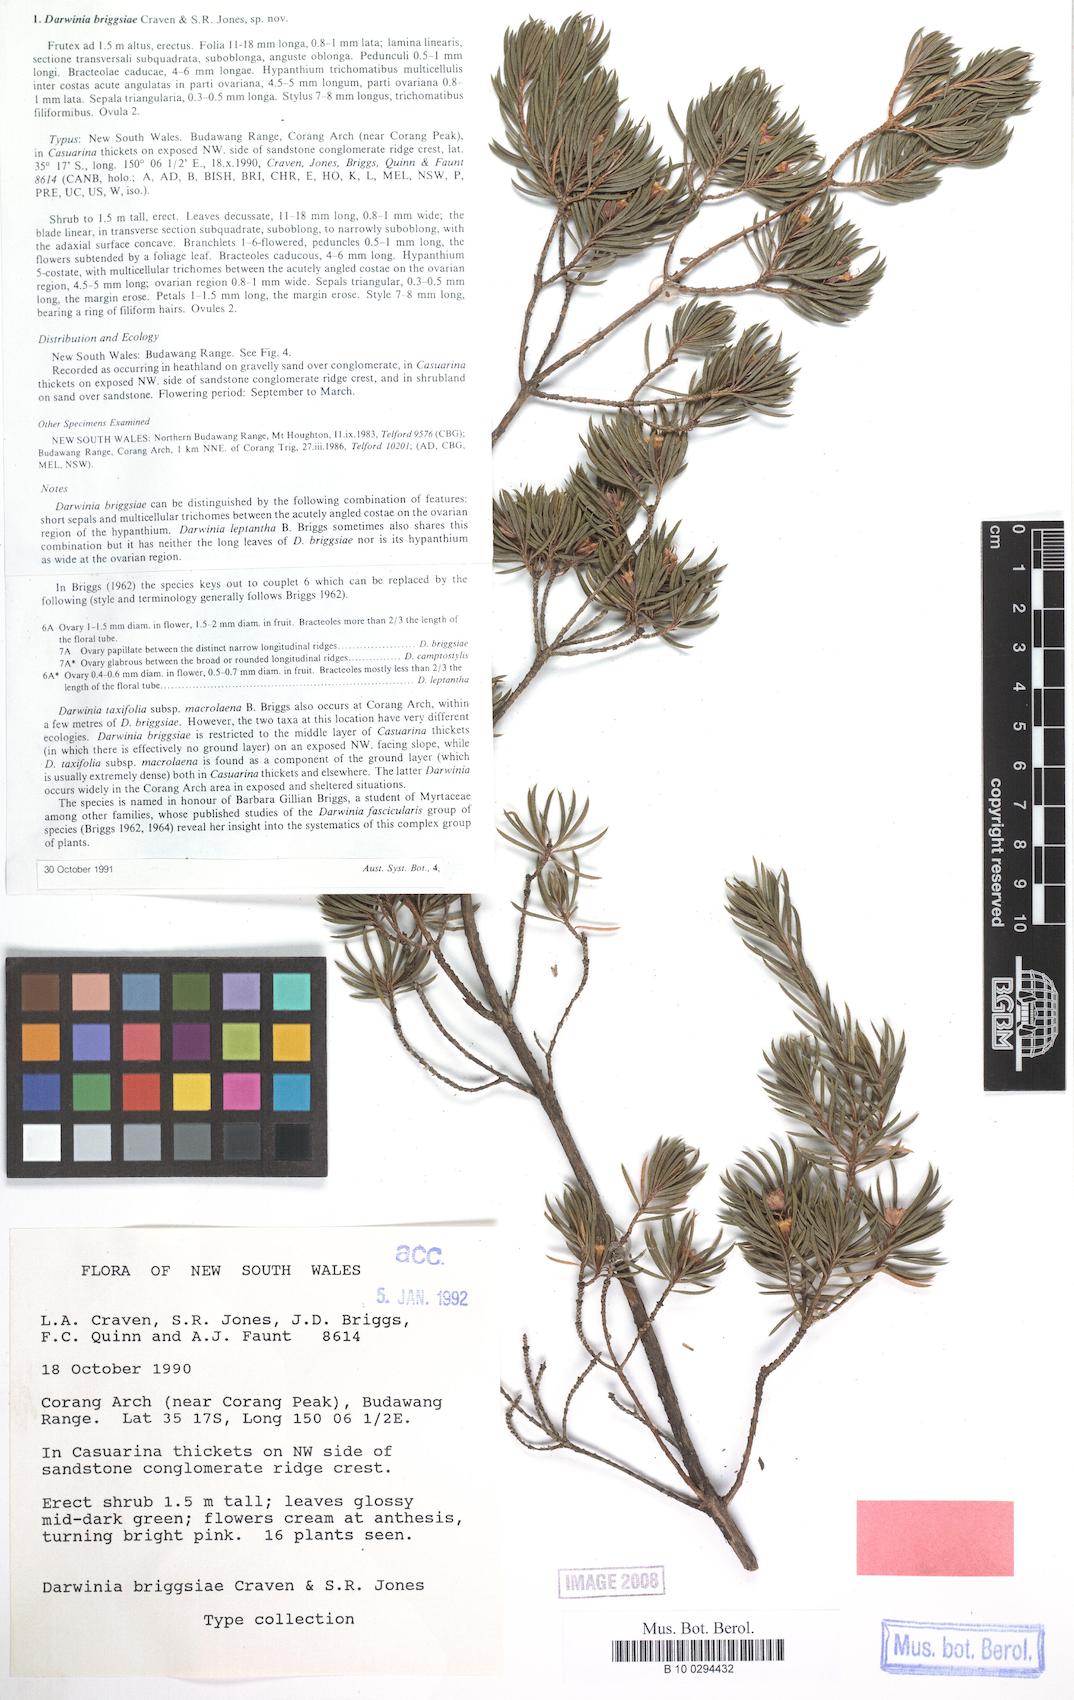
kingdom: Plantae
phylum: Tracheophyta
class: Magnoliopsida
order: Myrtales
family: Myrtaceae
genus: Darwinia
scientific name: Darwinia briggsiae
